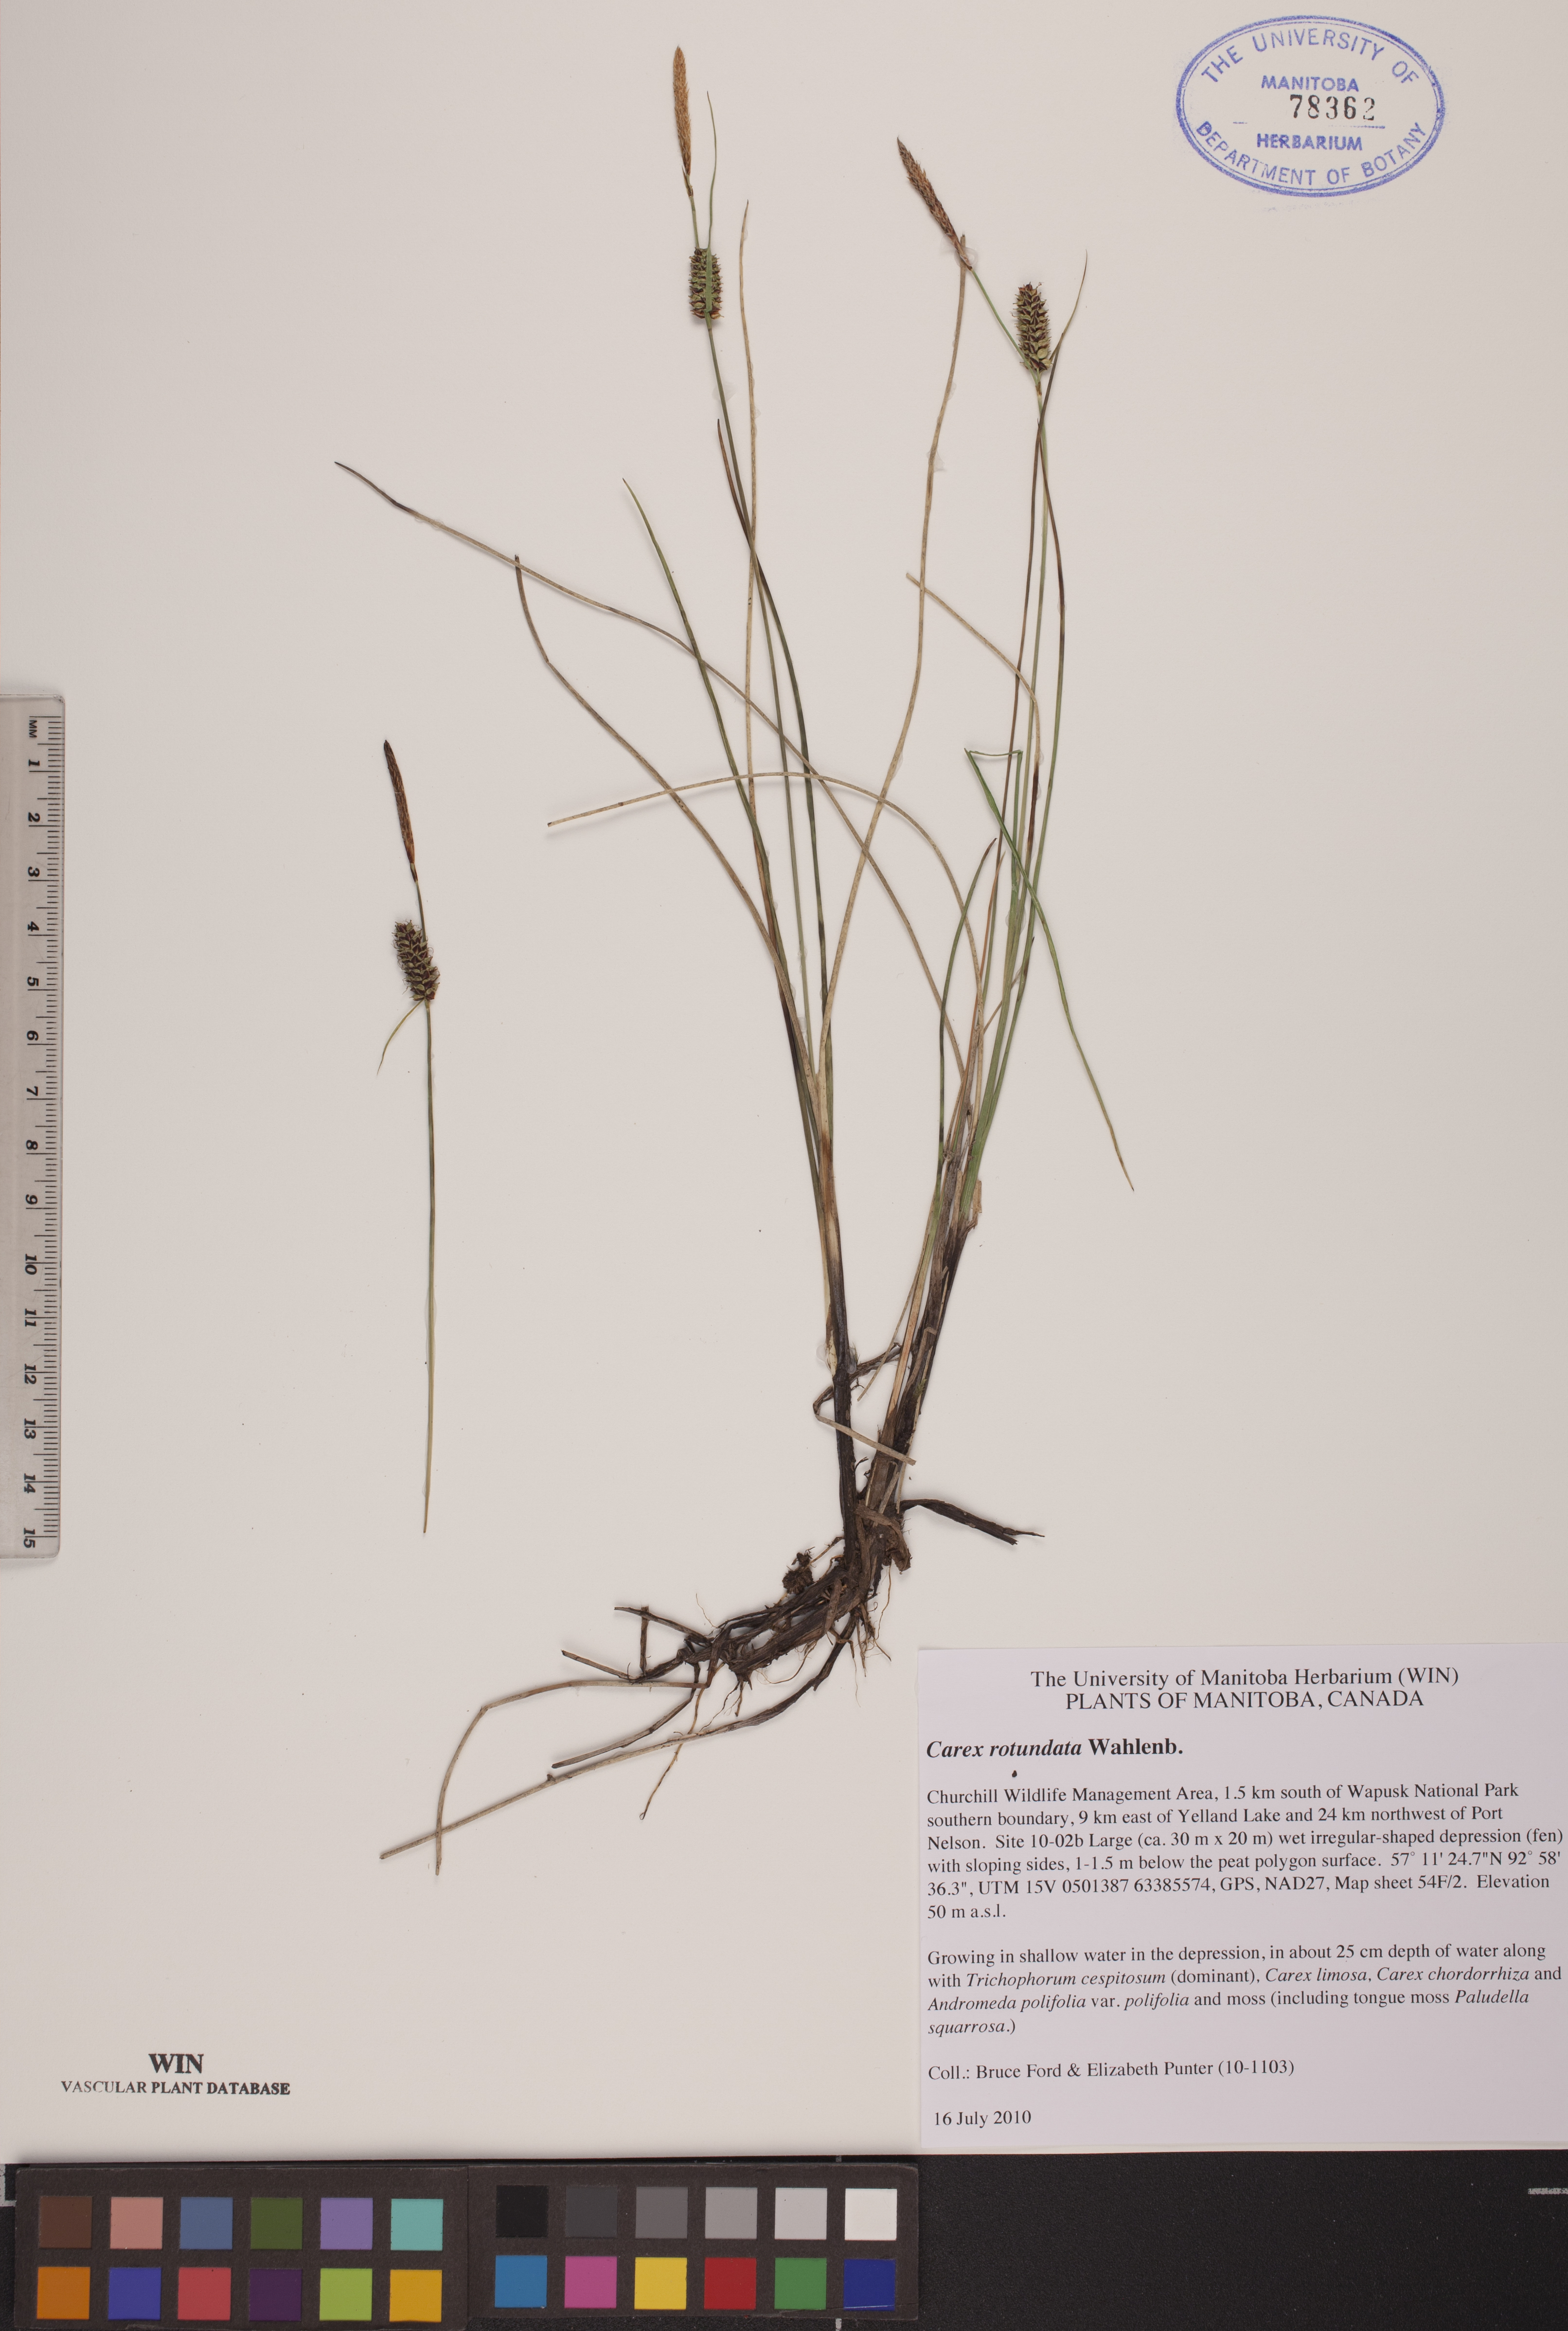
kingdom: Plantae
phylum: Tracheophyta
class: Liliopsida
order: Poales
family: Cyperaceae
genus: Carex
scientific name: Carex rotundata
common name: Round-fruited sedge
